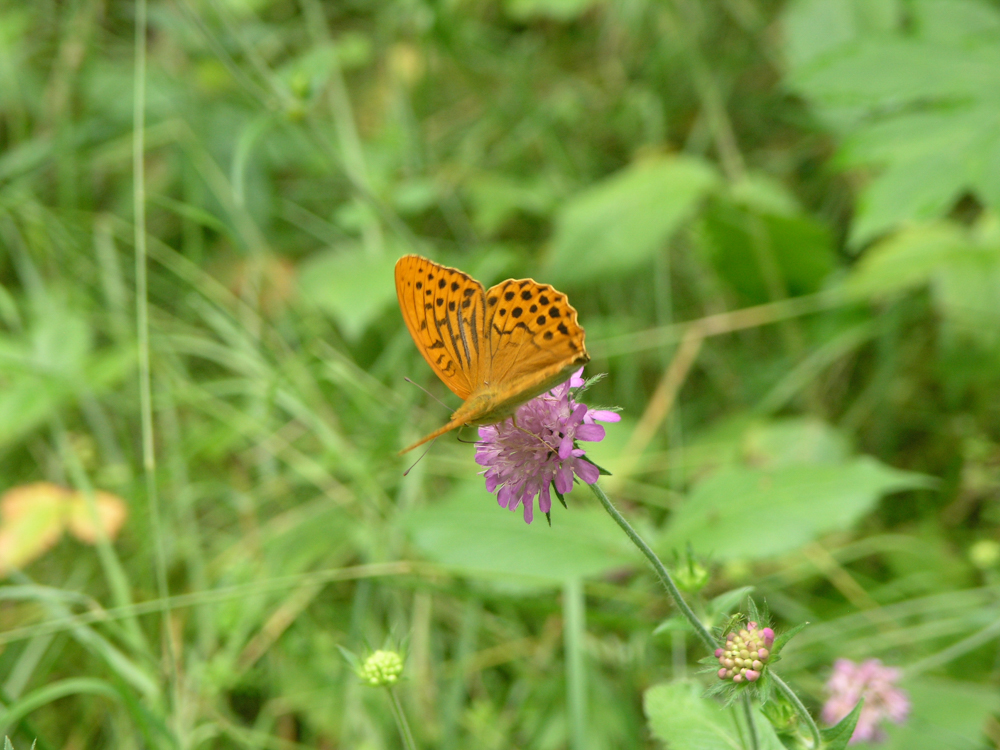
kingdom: Animalia
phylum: Arthropoda
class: Insecta
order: Lepidoptera
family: Nymphalidae
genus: Argynnis
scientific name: Argynnis paphia
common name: Silver-washed fritillary
